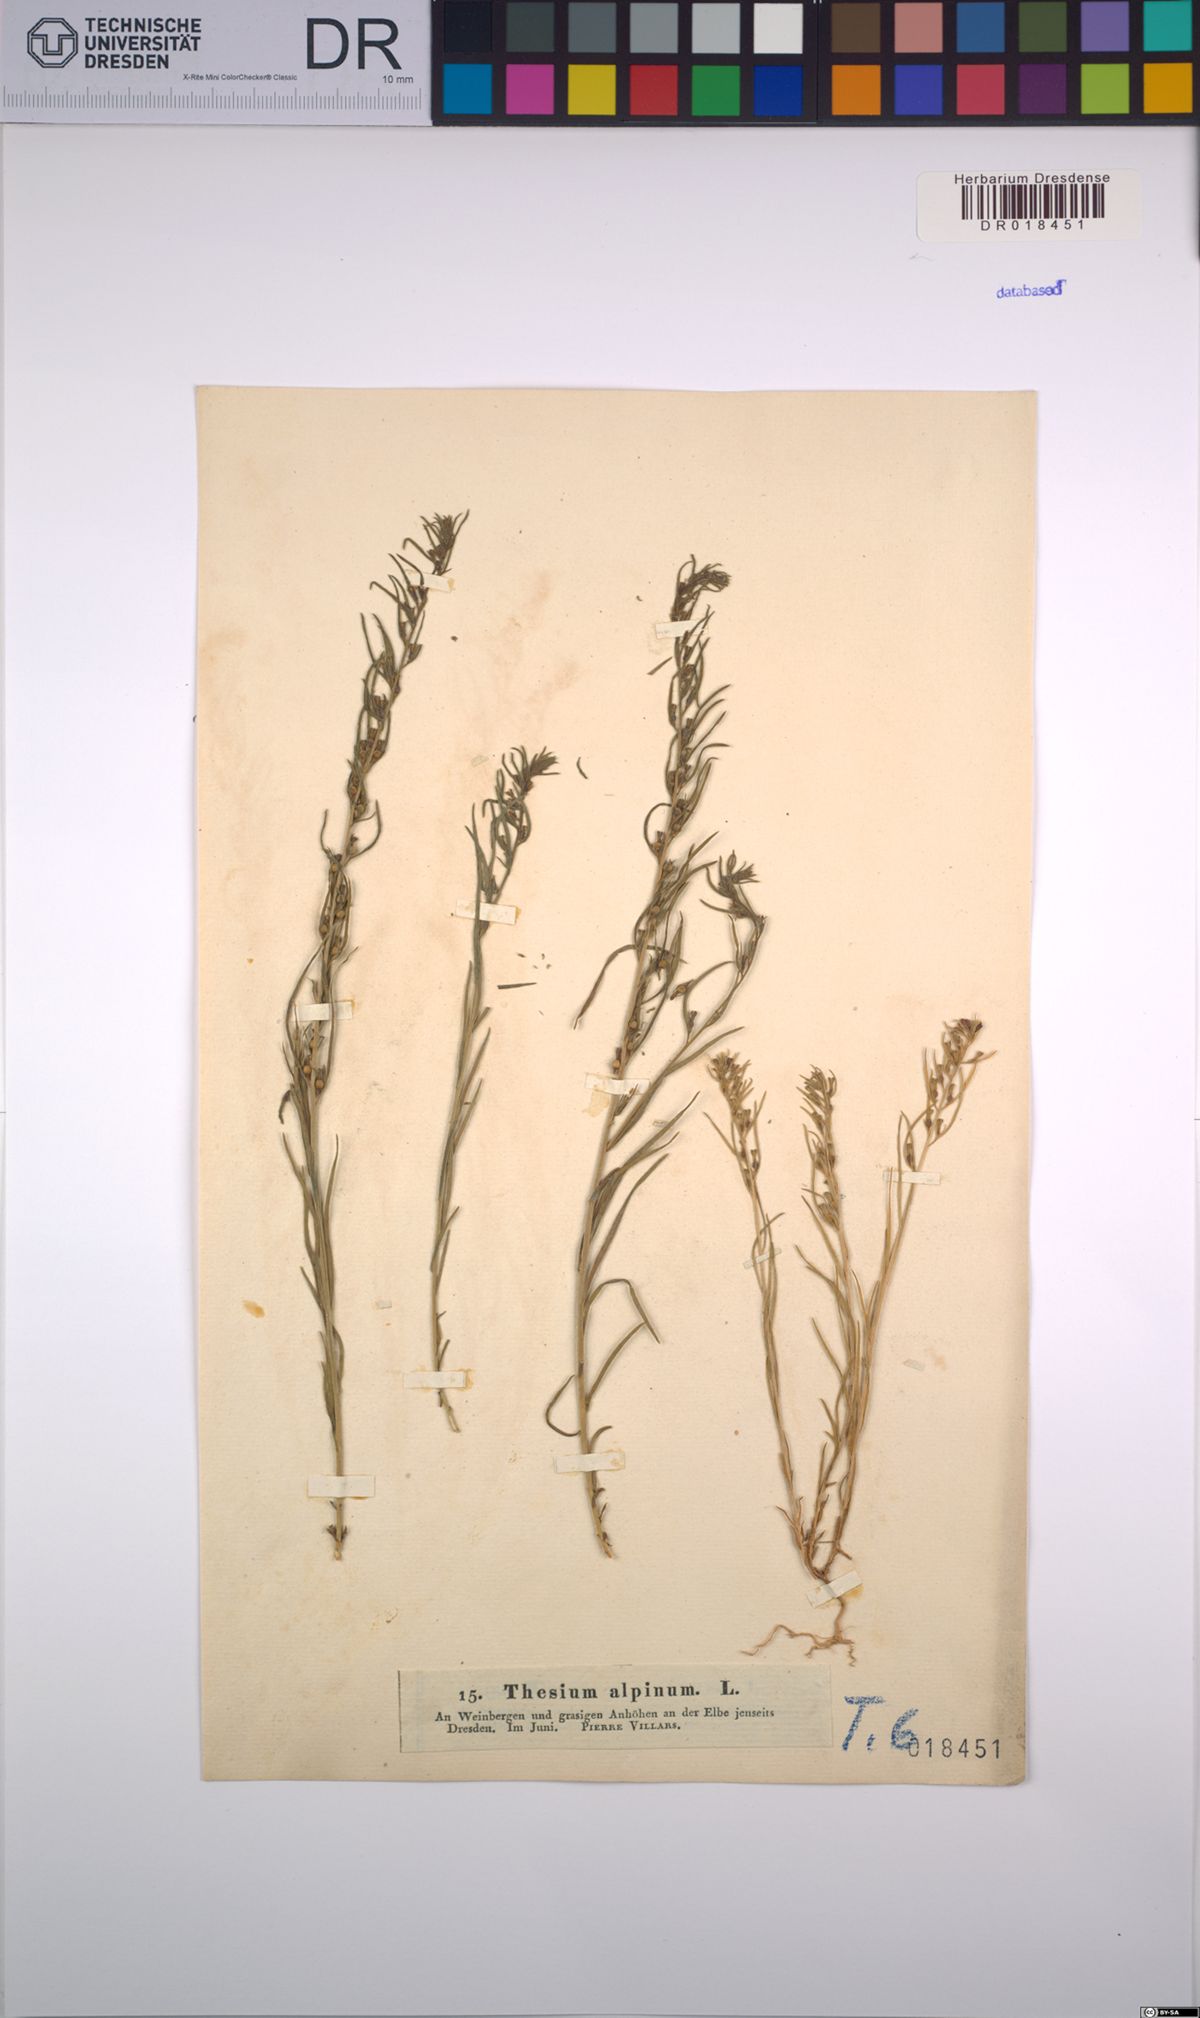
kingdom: Plantae
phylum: Tracheophyta
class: Magnoliopsida
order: Santalales
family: Thesiaceae
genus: Thesium
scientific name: Thesium alpinum
